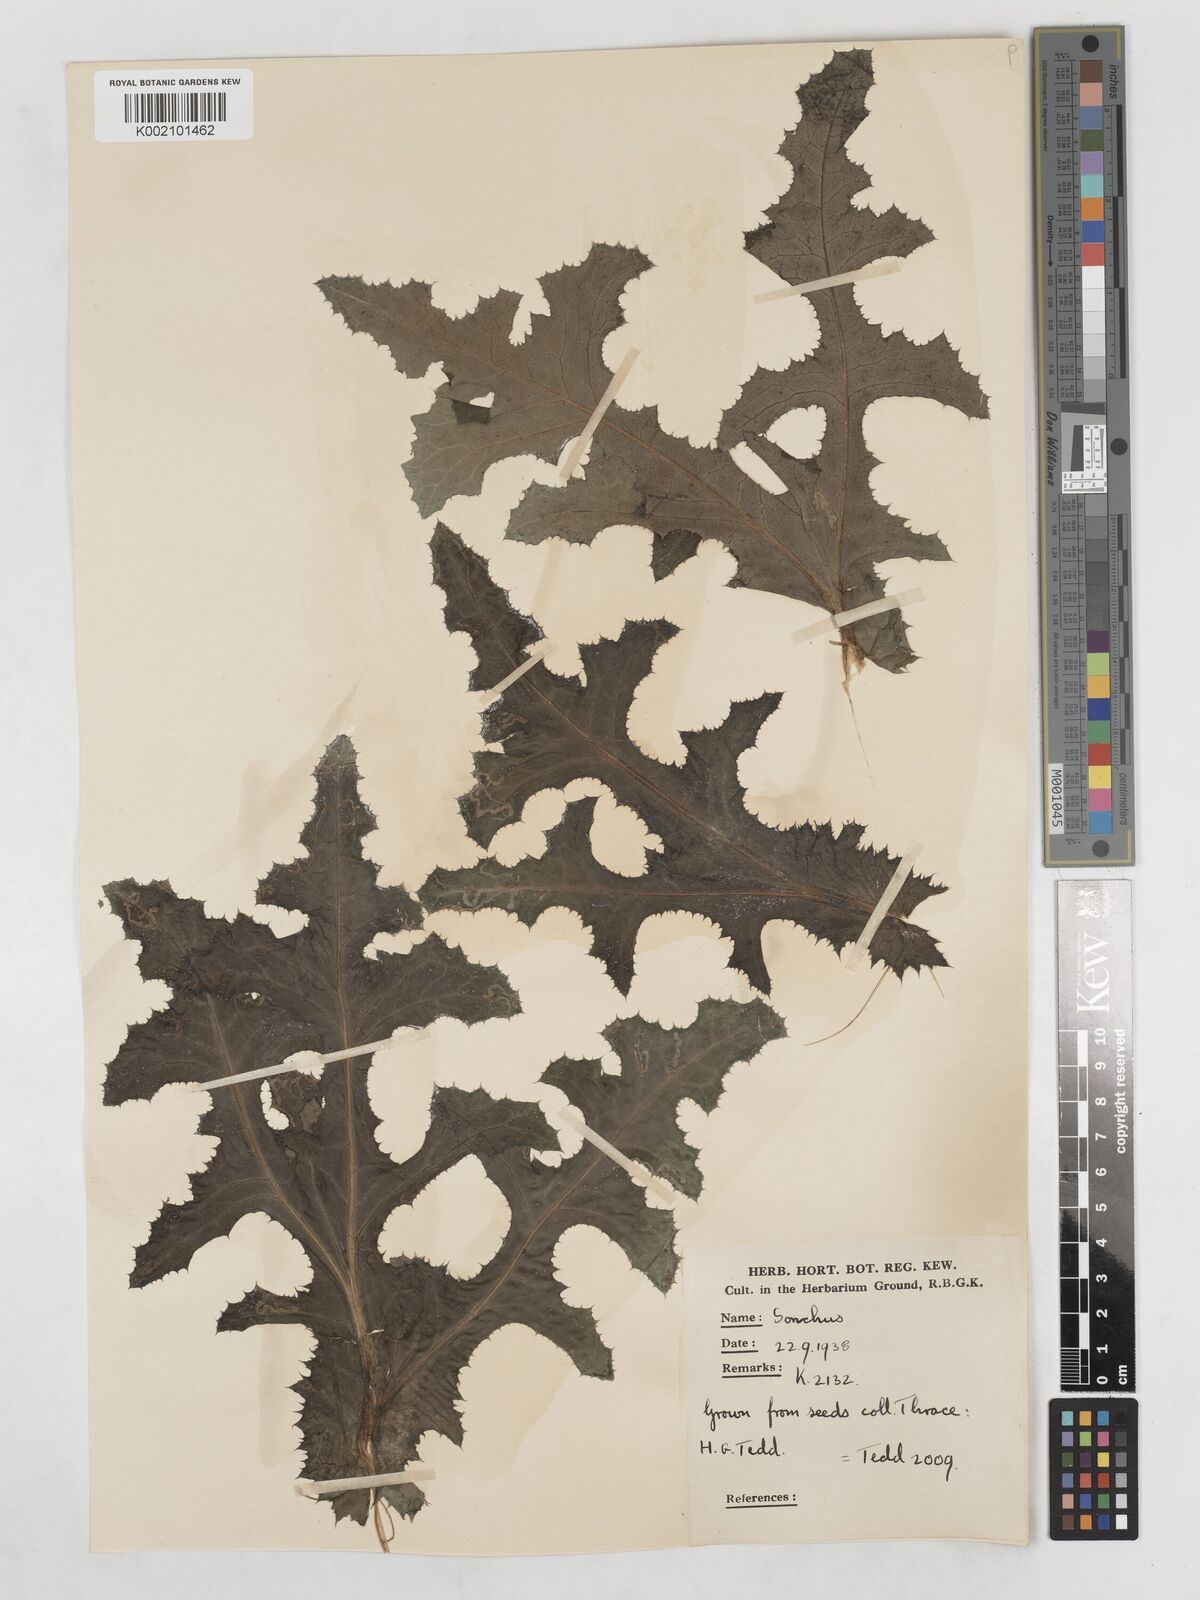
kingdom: Plantae
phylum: Tracheophyta
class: Magnoliopsida
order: Asterales
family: Asteraceae
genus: Sonchus
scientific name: Sonchus arvensis
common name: Perennial sow-thistle
